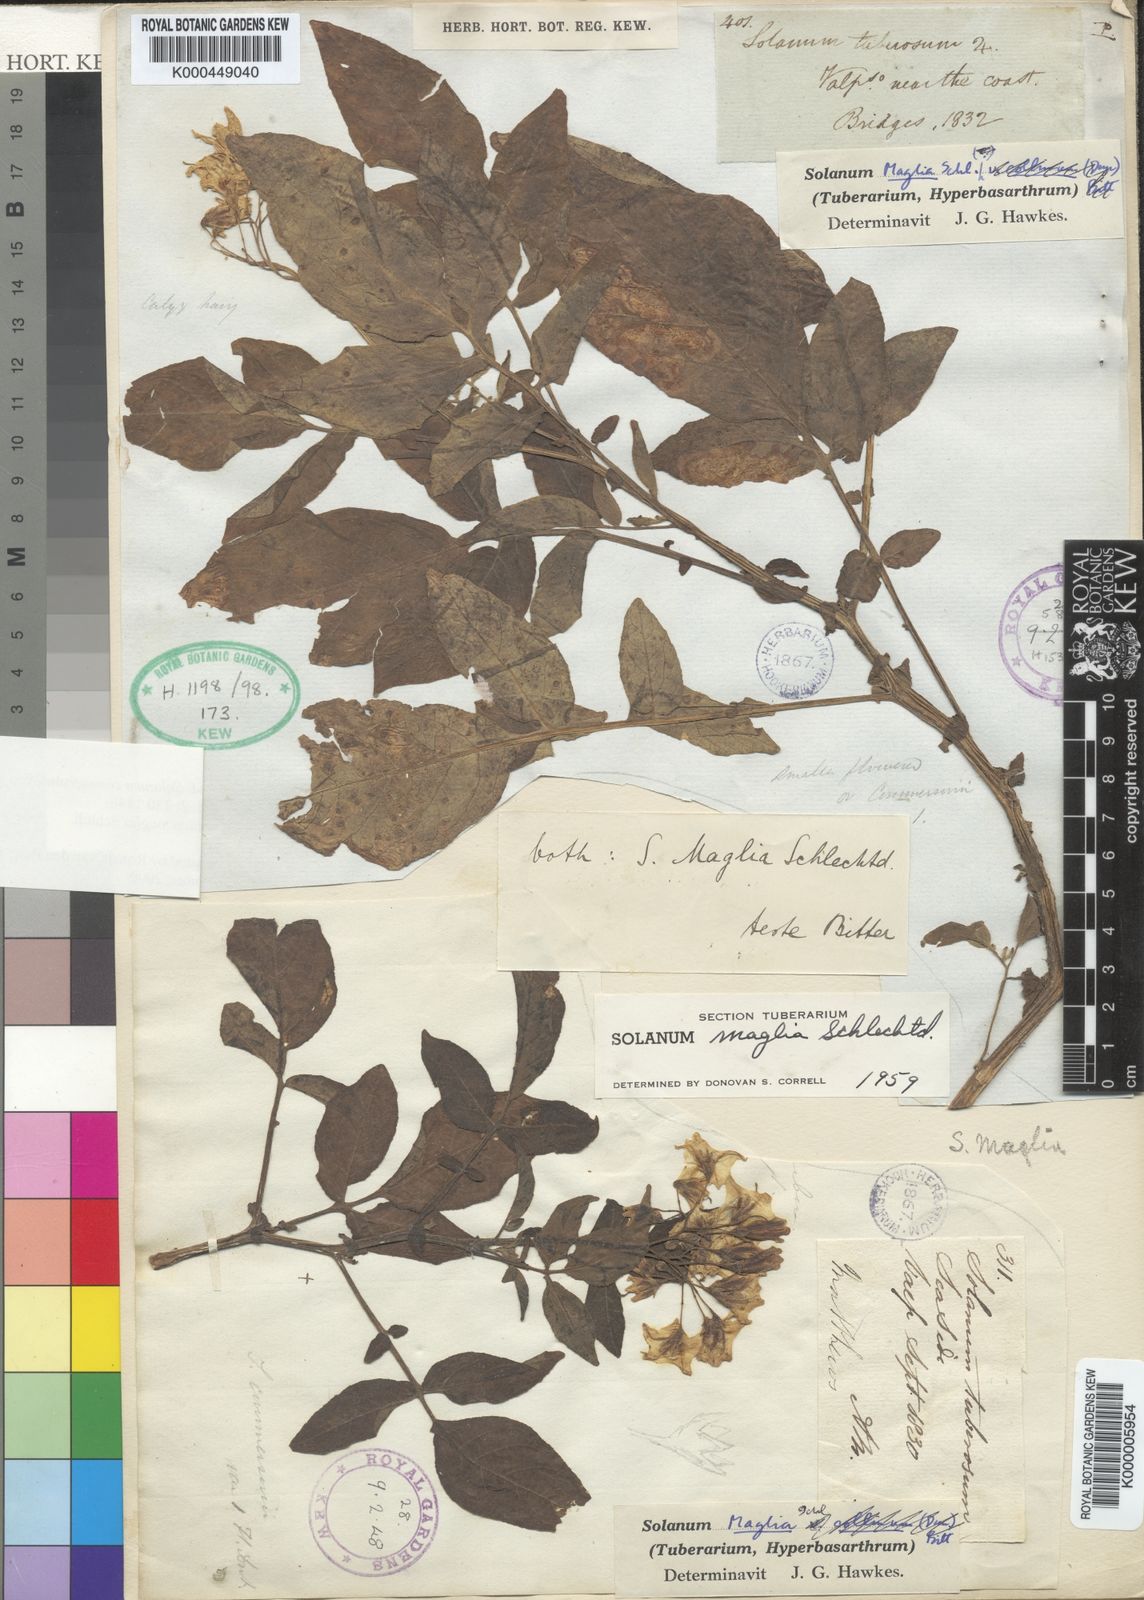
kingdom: Plantae
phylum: Tracheophyta
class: Magnoliopsida
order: Solanales
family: Solanaceae
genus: Solanum
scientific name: Solanum maglia
